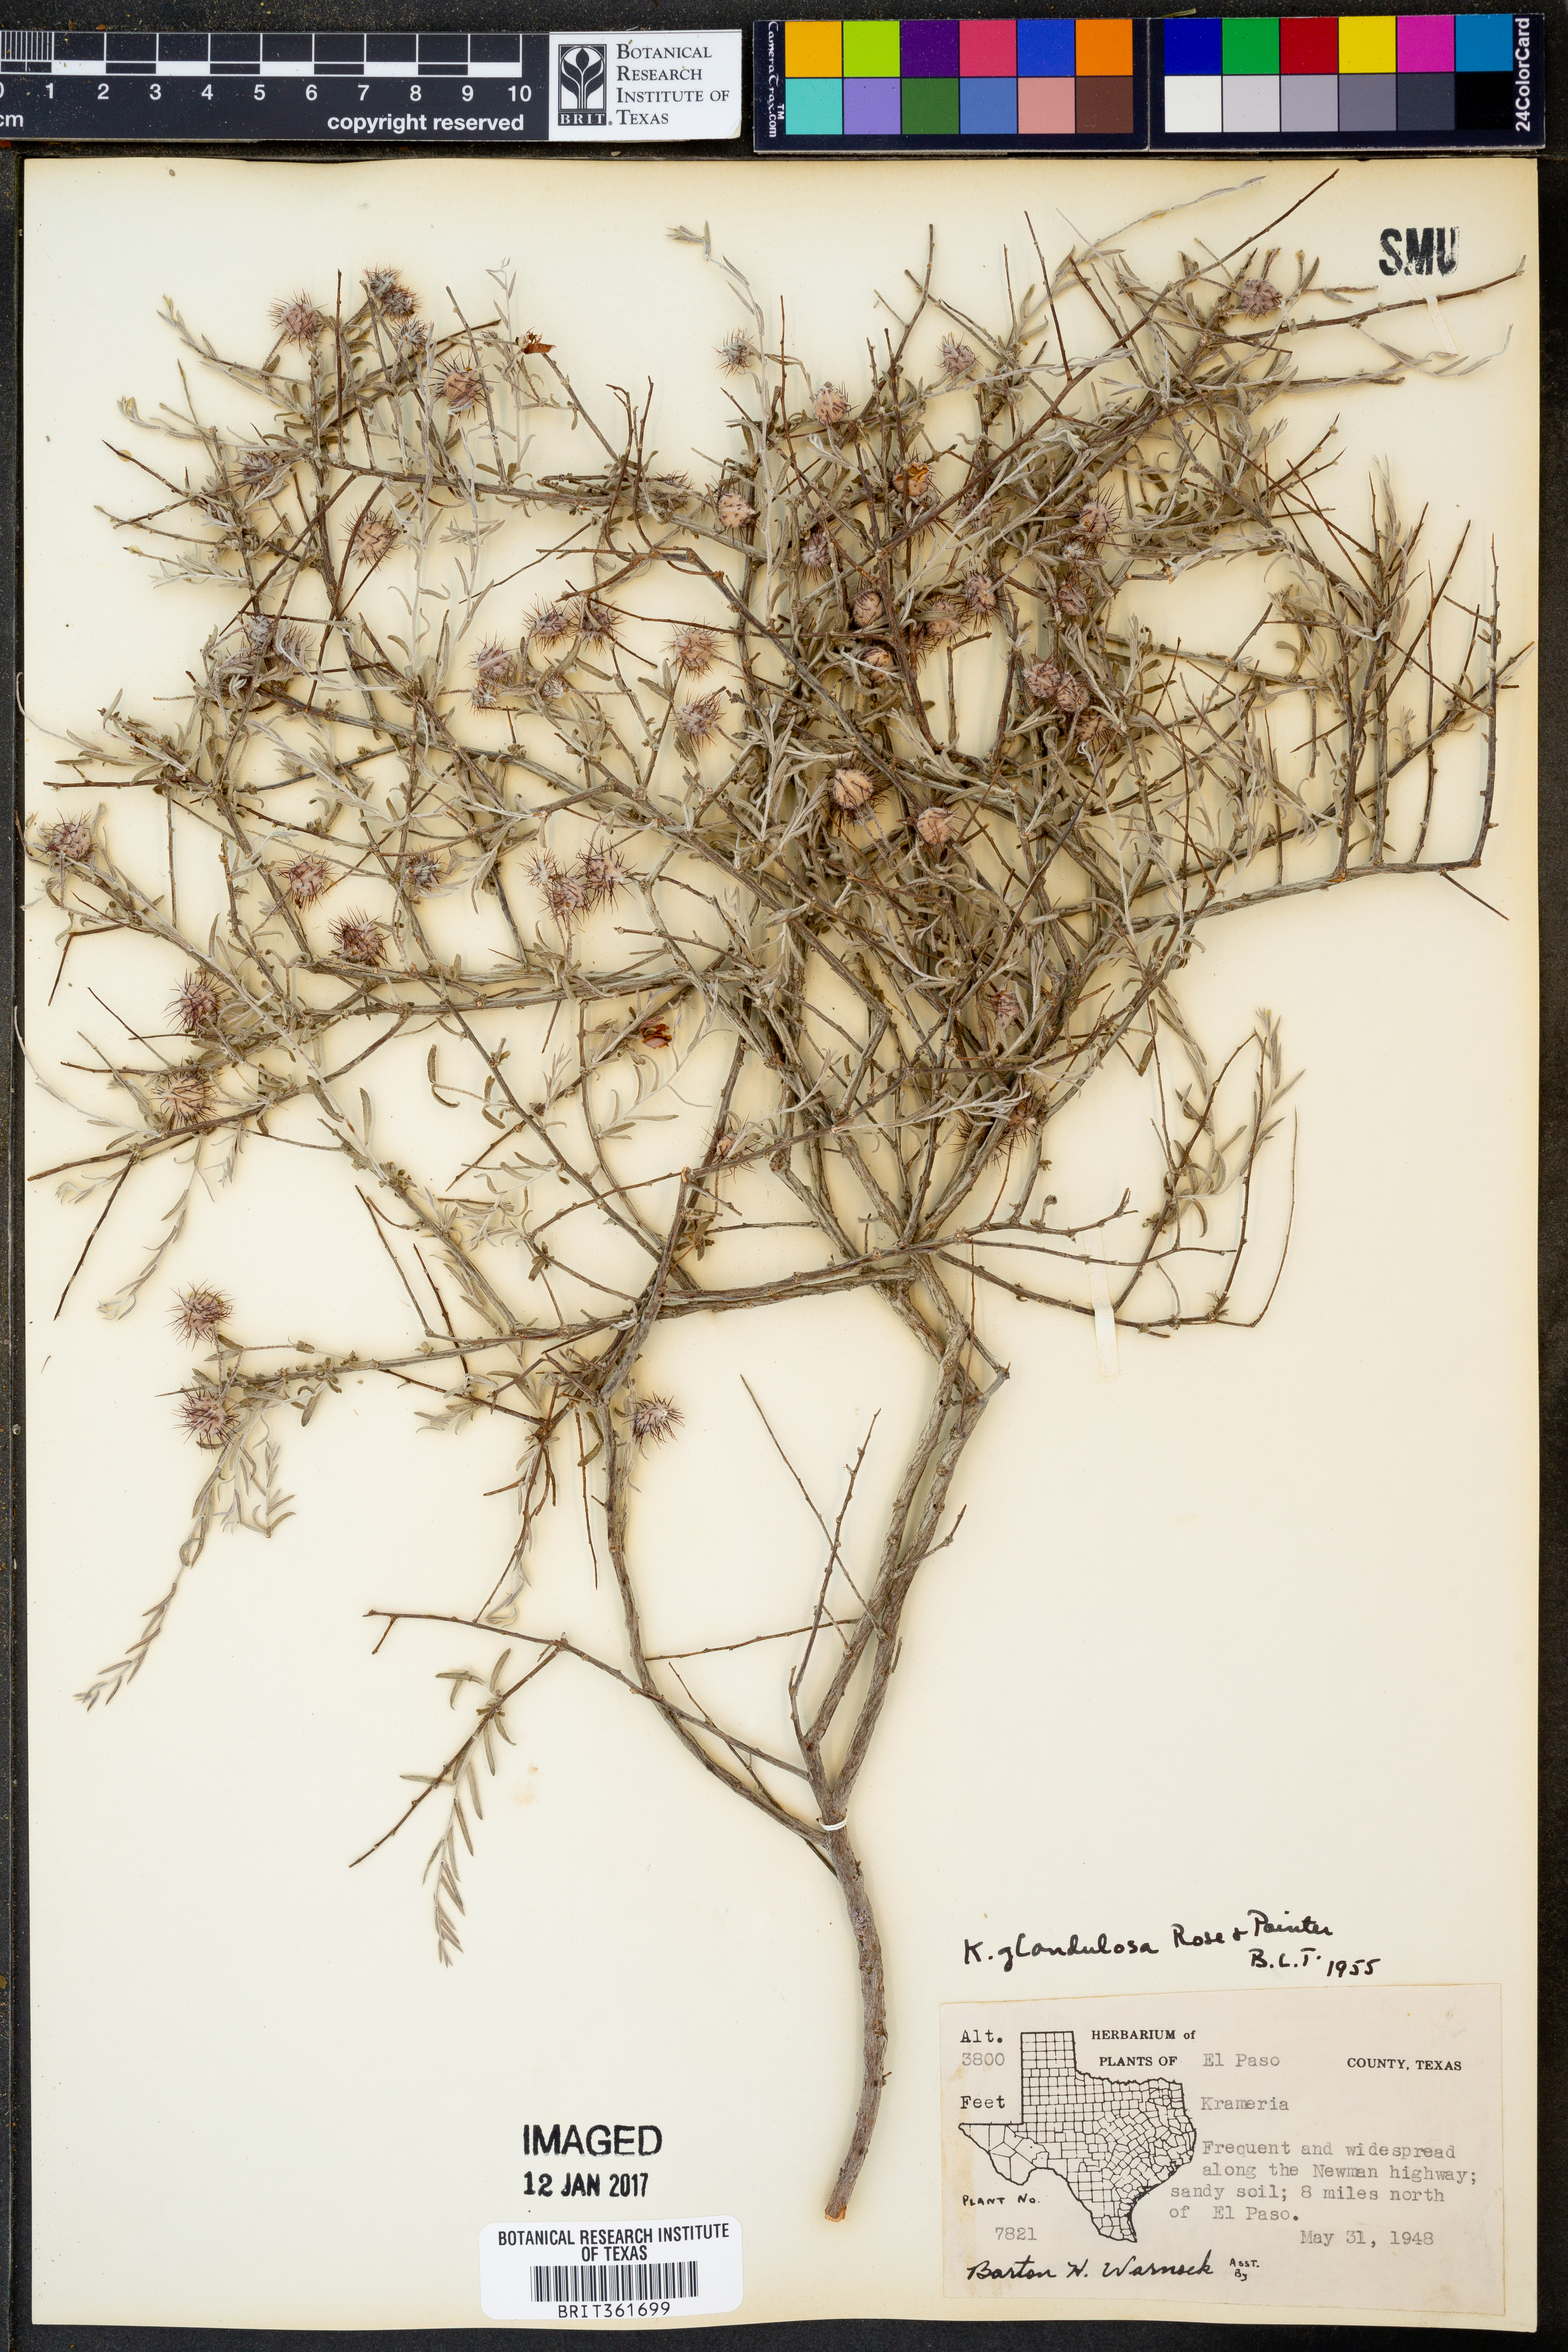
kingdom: Plantae
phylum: Tracheophyta
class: Magnoliopsida
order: Zygophyllales
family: Krameriaceae
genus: Krameria
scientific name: Krameria erecta
